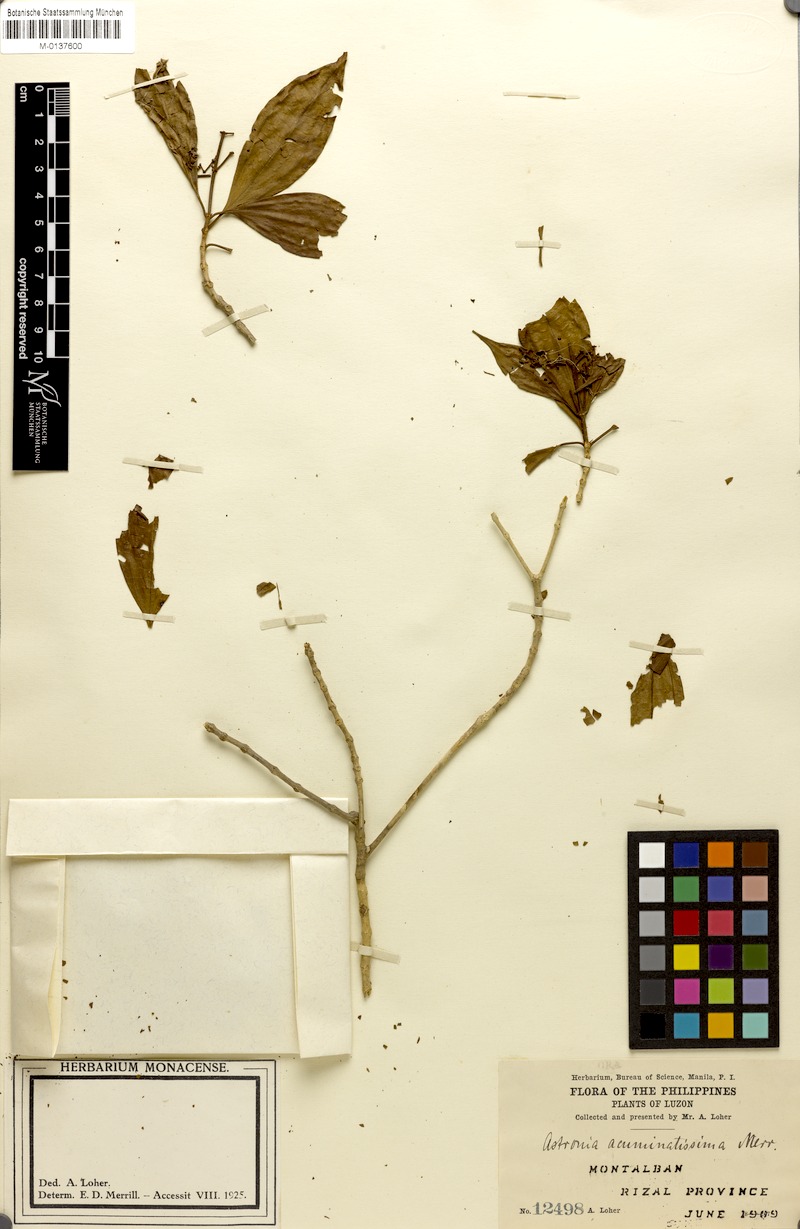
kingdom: Plantae
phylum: Tracheophyta
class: Magnoliopsida
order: Myrtales
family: Melastomataceae
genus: Astronia
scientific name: Astronia acuminatissima
